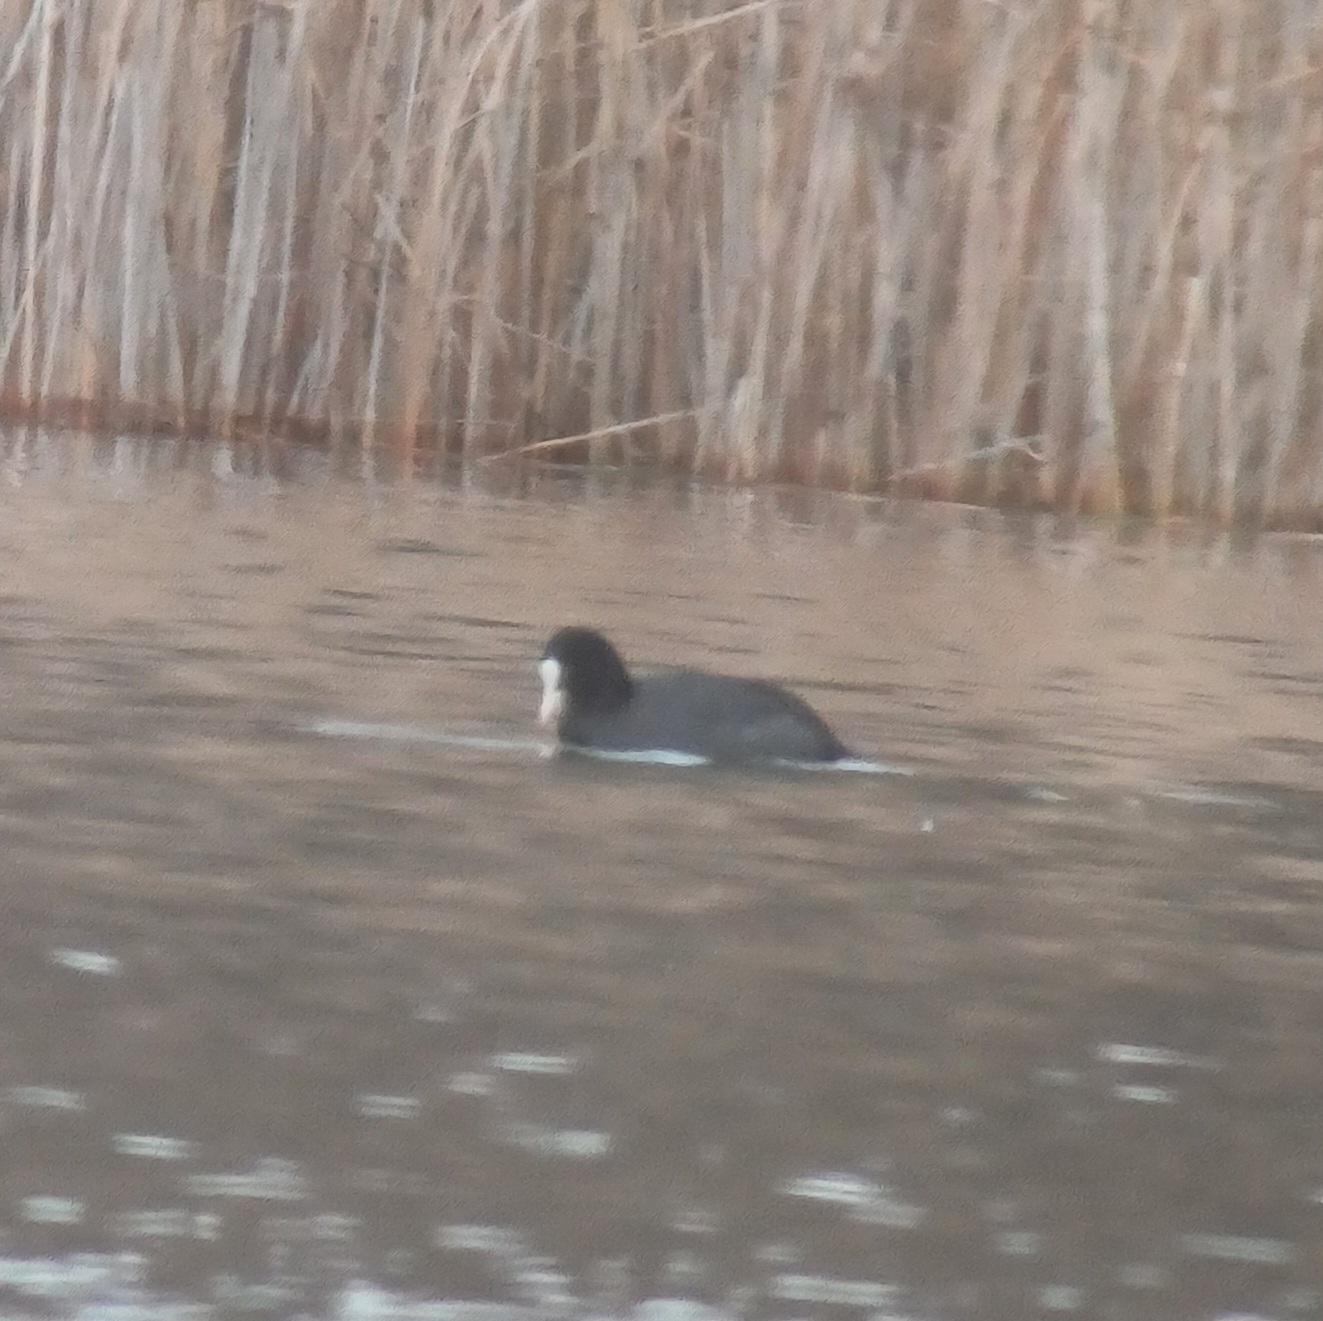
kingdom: Animalia
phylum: Chordata
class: Aves
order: Gruiformes
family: Rallidae
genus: Fulica
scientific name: Fulica atra
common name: Blishøne
